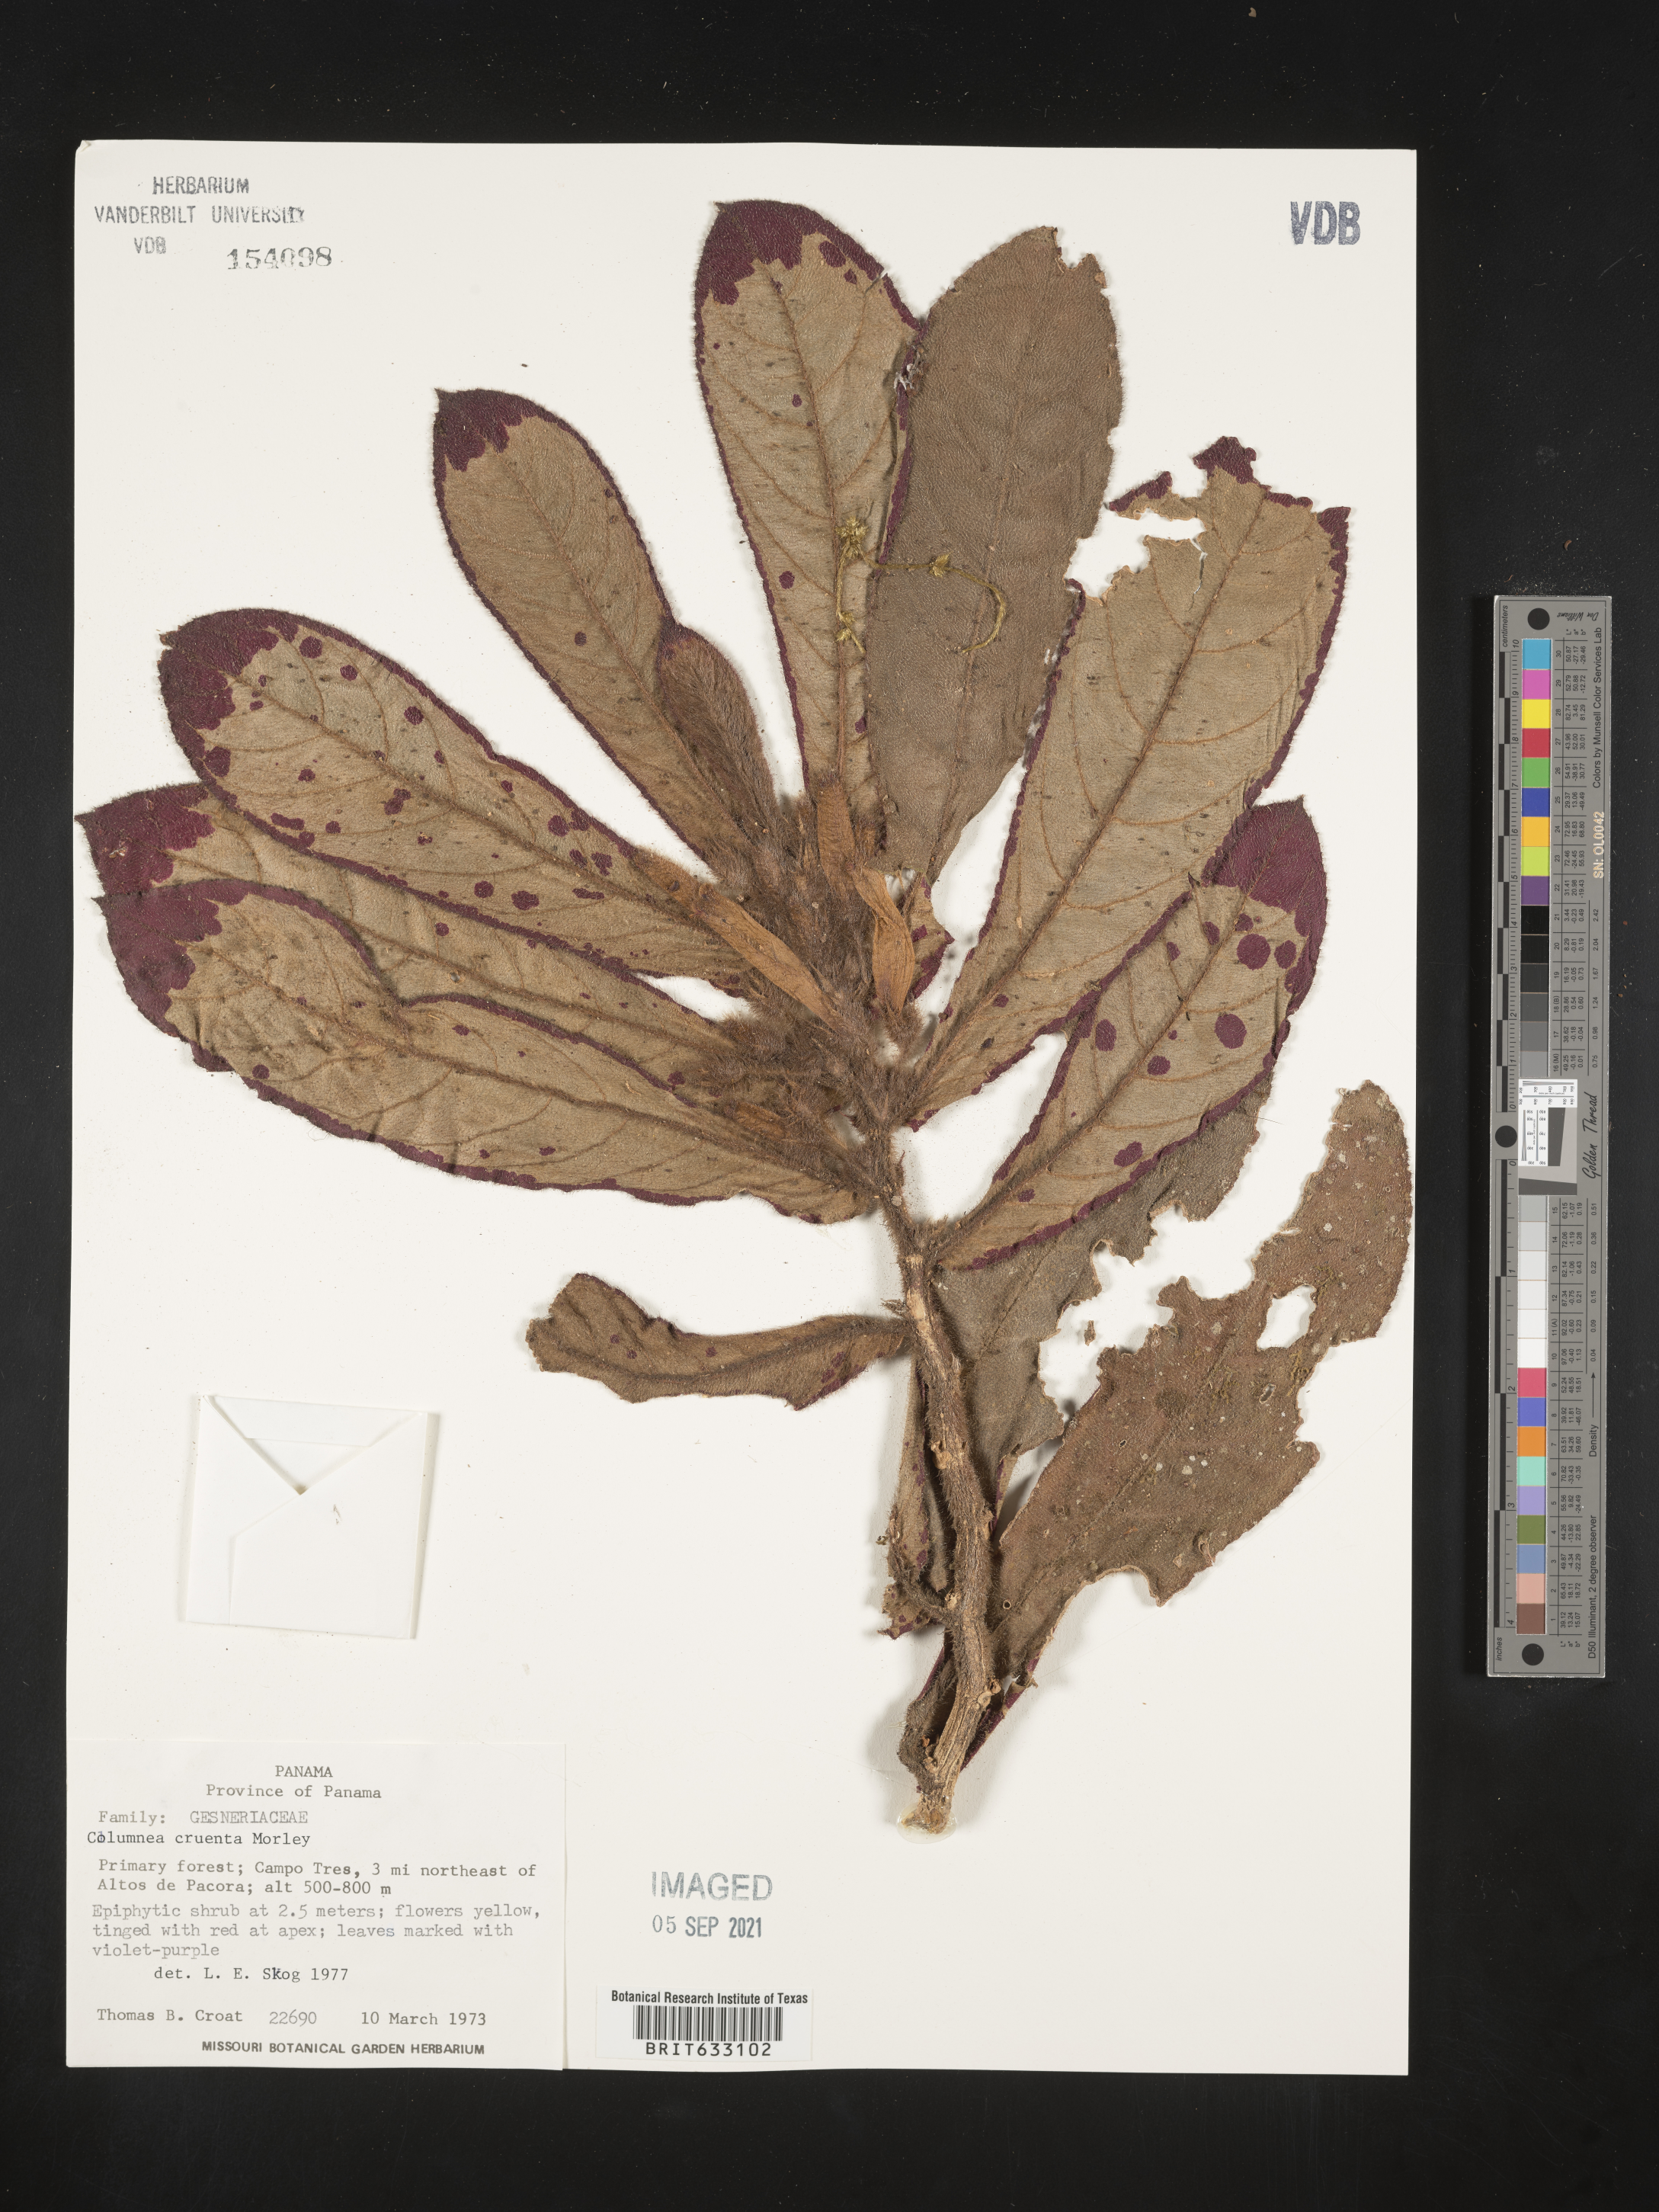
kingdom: Plantae
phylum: Tracheophyta
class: Magnoliopsida
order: Lamiales
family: Gesneriaceae
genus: Columnea
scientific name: Columnea
